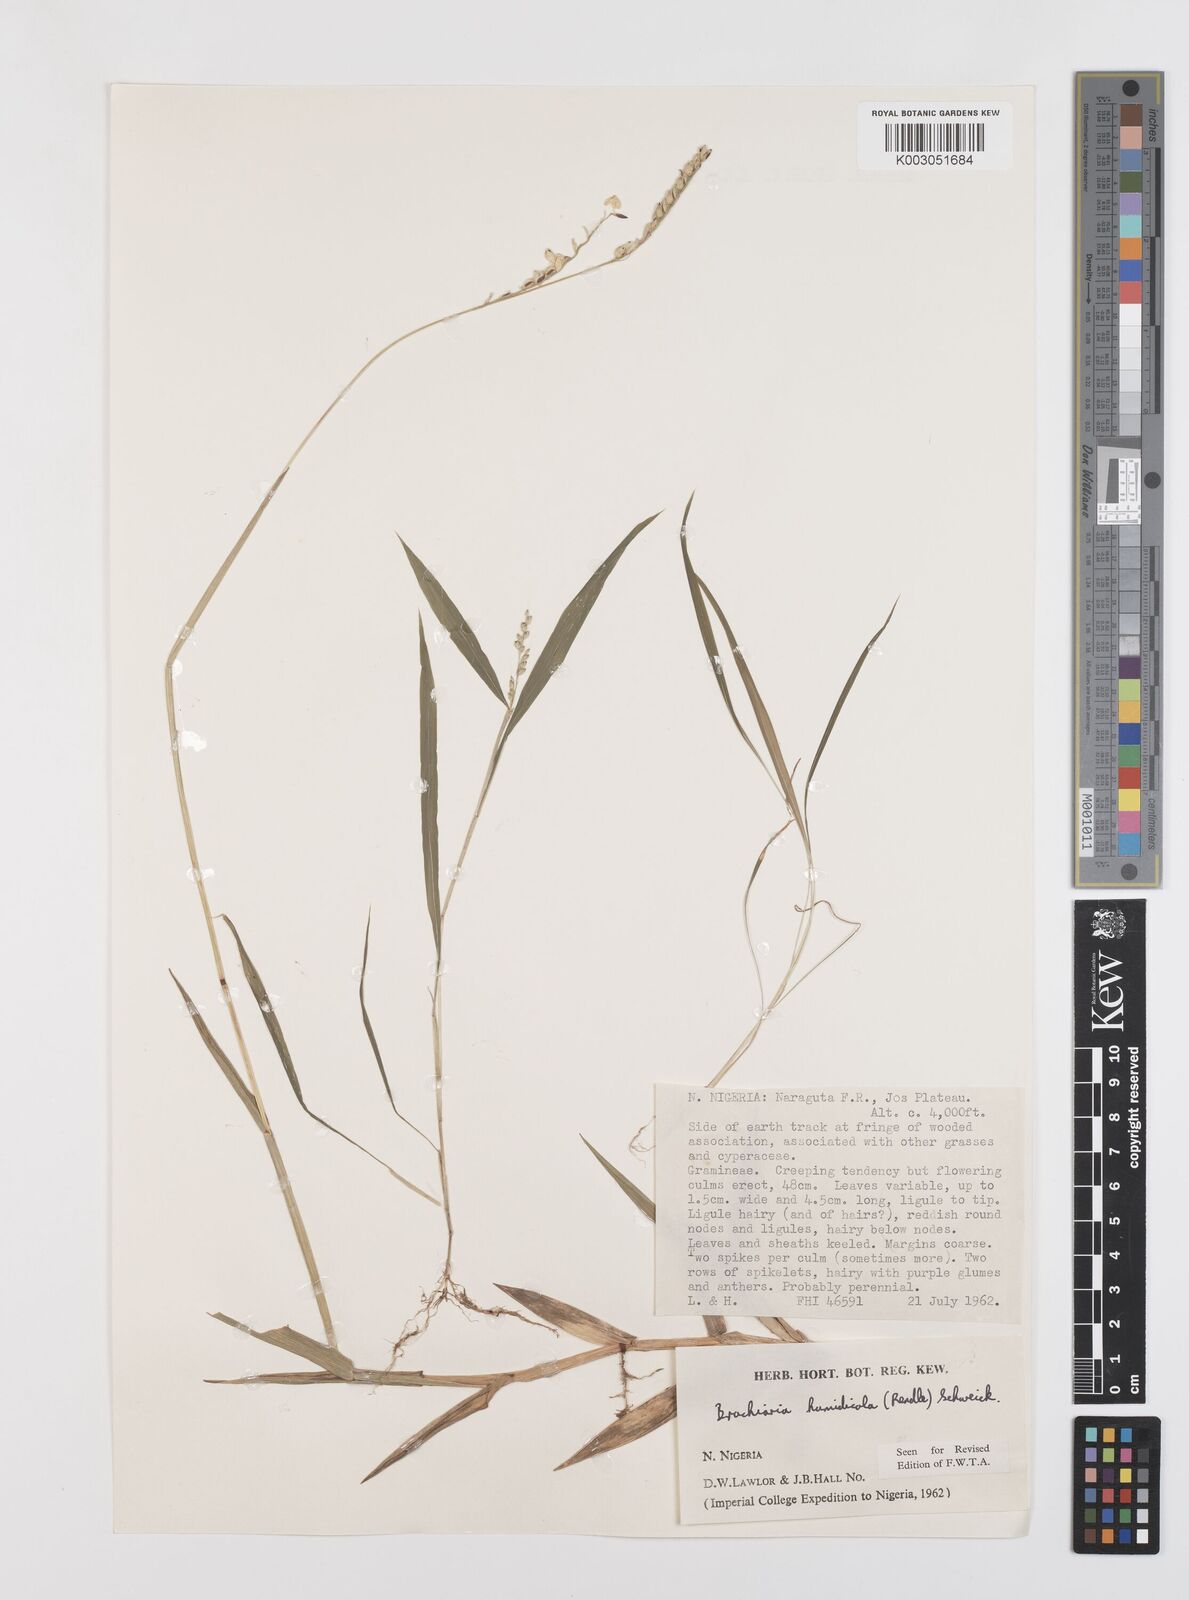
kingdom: Plantae
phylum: Tracheophyta
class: Liliopsida
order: Poales
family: Poaceae
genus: Urochloa
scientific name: Urochloa dictyoneura
